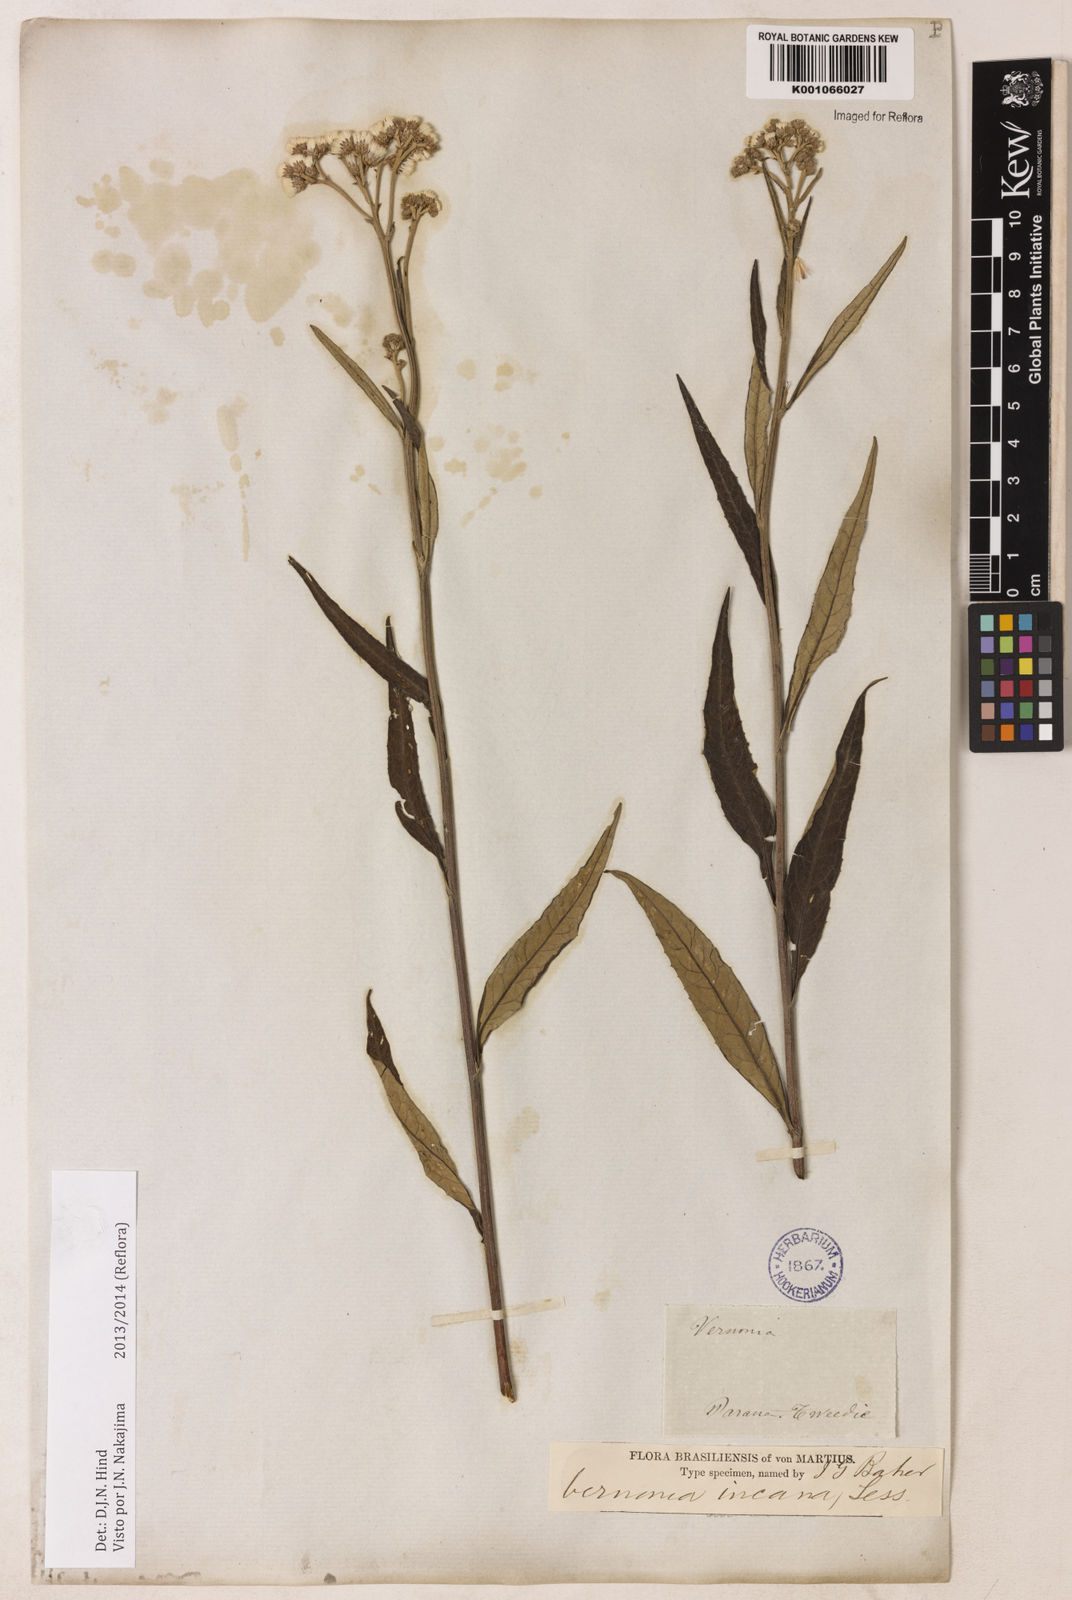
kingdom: Plantae
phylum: Tracheophyta
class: Magnoliopsida
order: Asterales
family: Asteraceae
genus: Vernonia
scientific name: Vernonia
